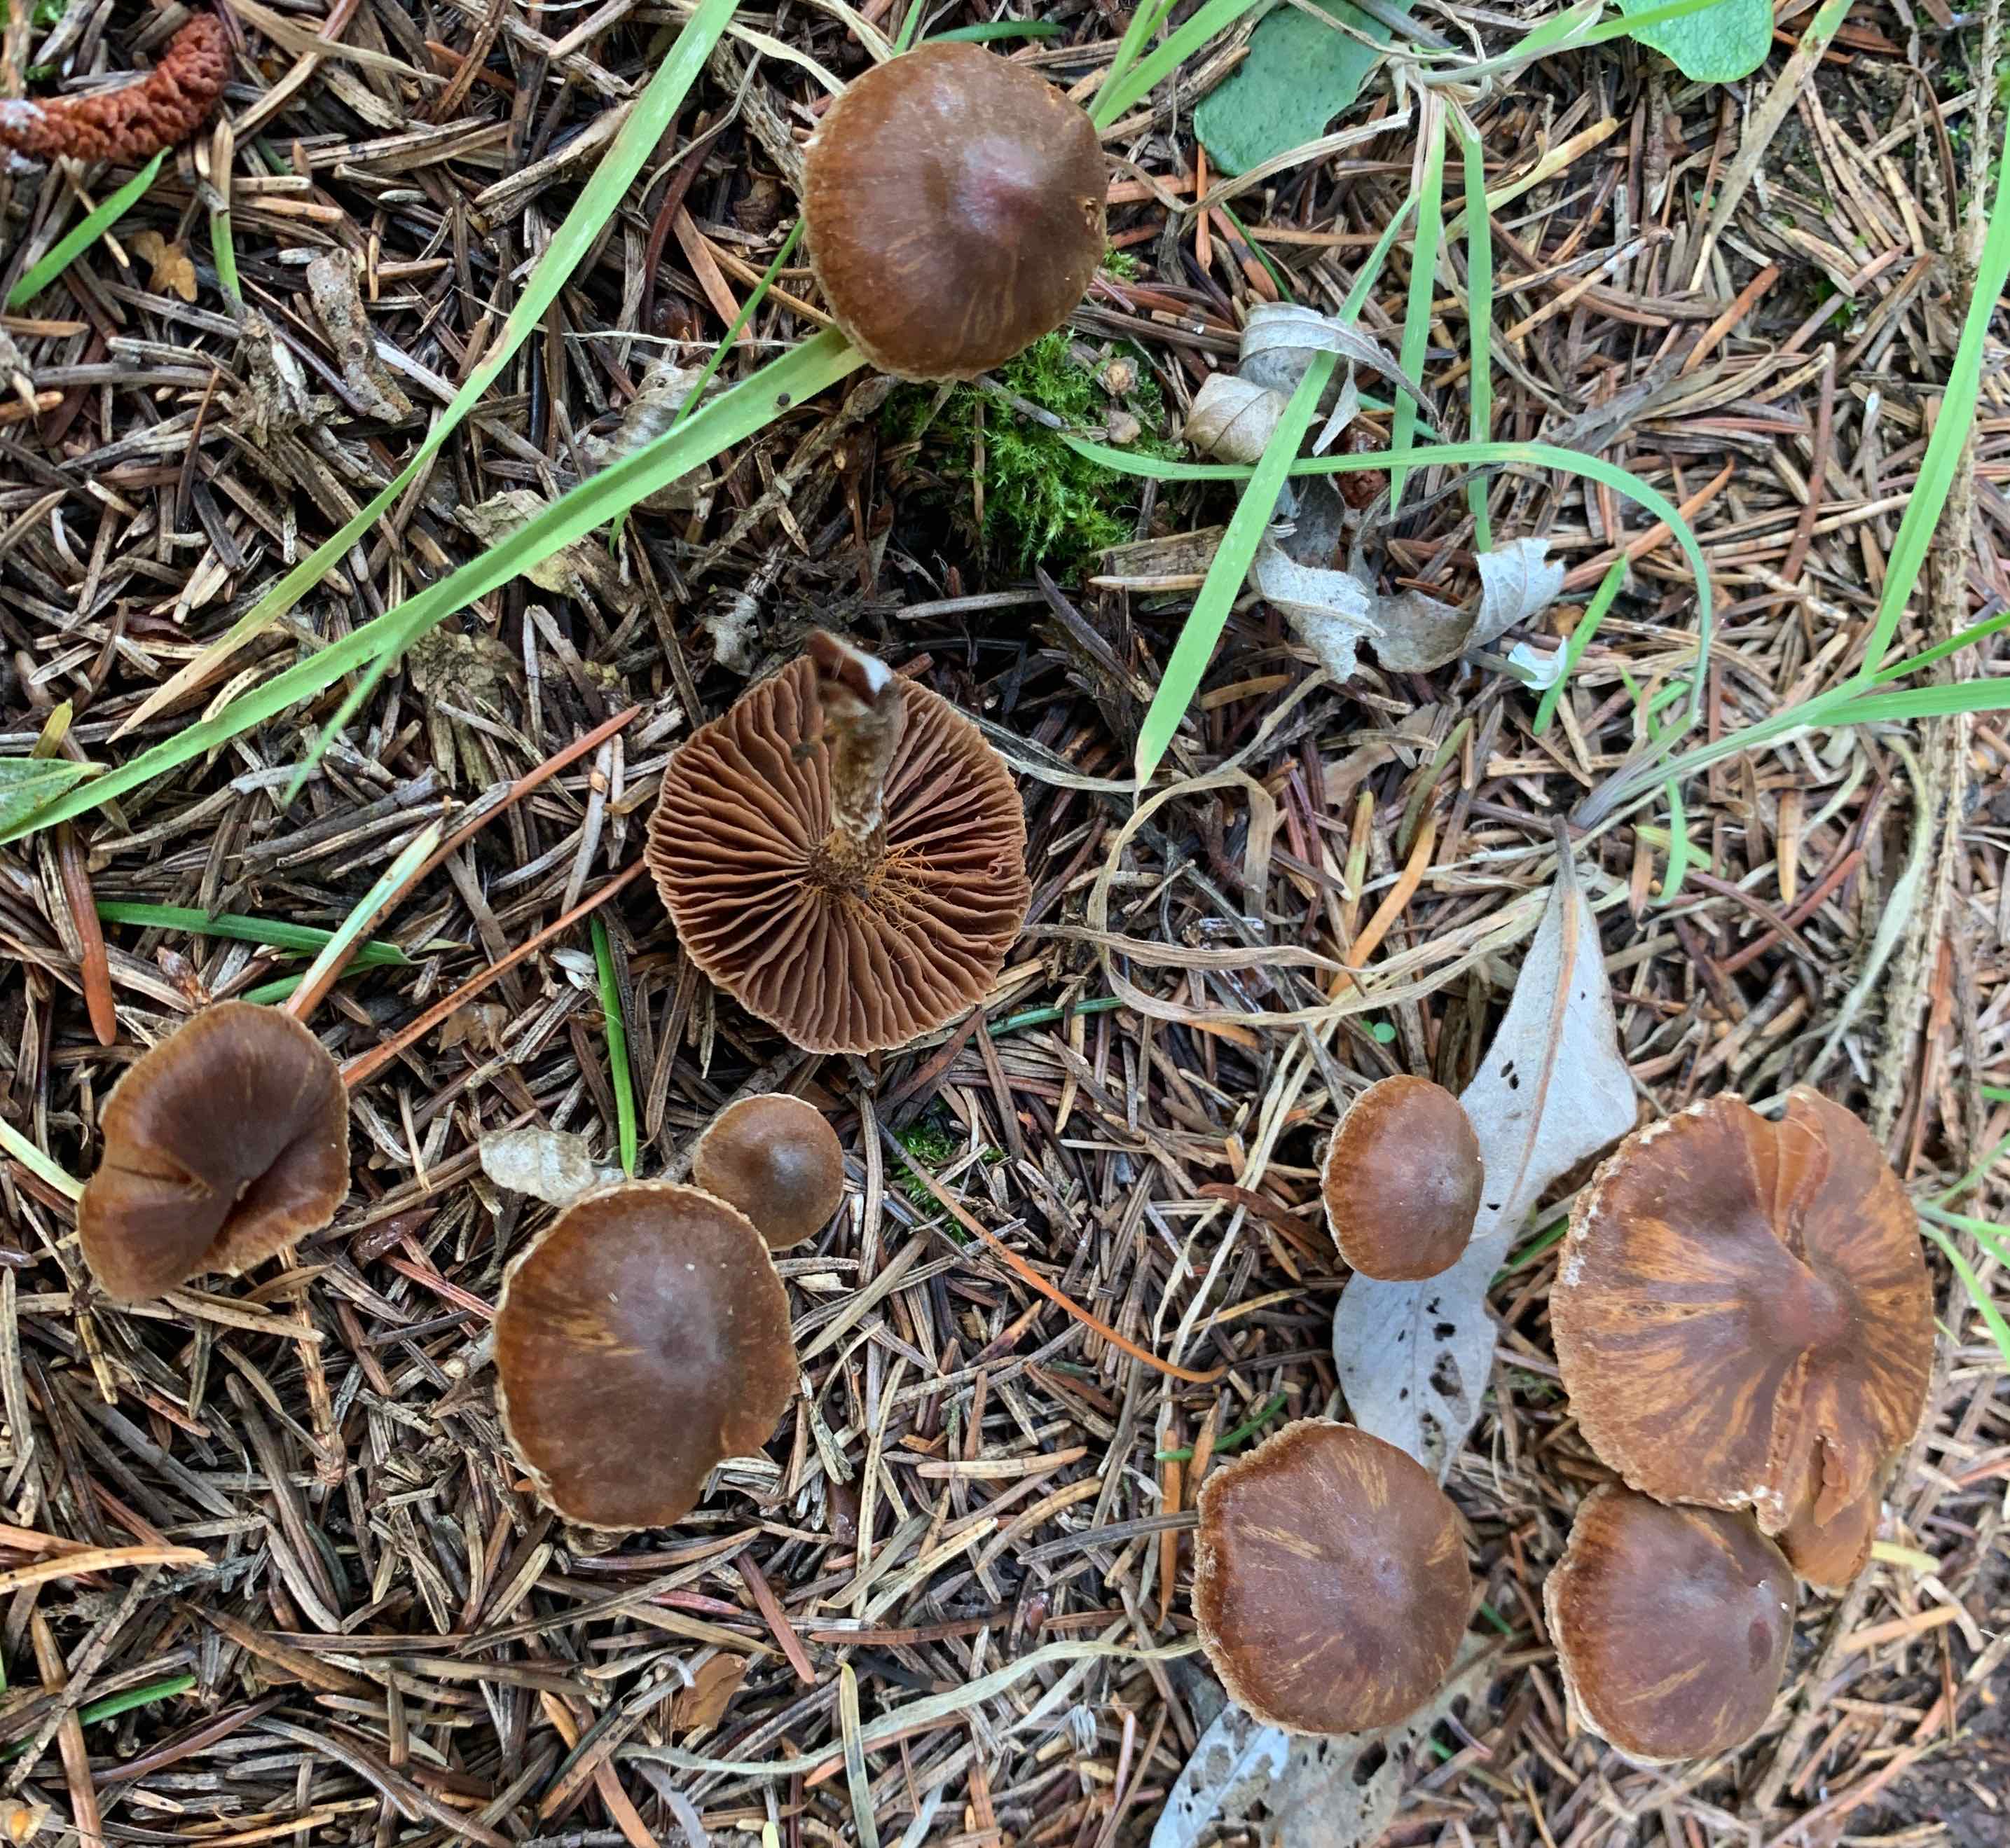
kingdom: Fungi
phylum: Basidiomycota
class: Agaricomycetes
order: Agaricales
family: Cortinariaceae
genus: Cortinarius
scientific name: Cortinarius
